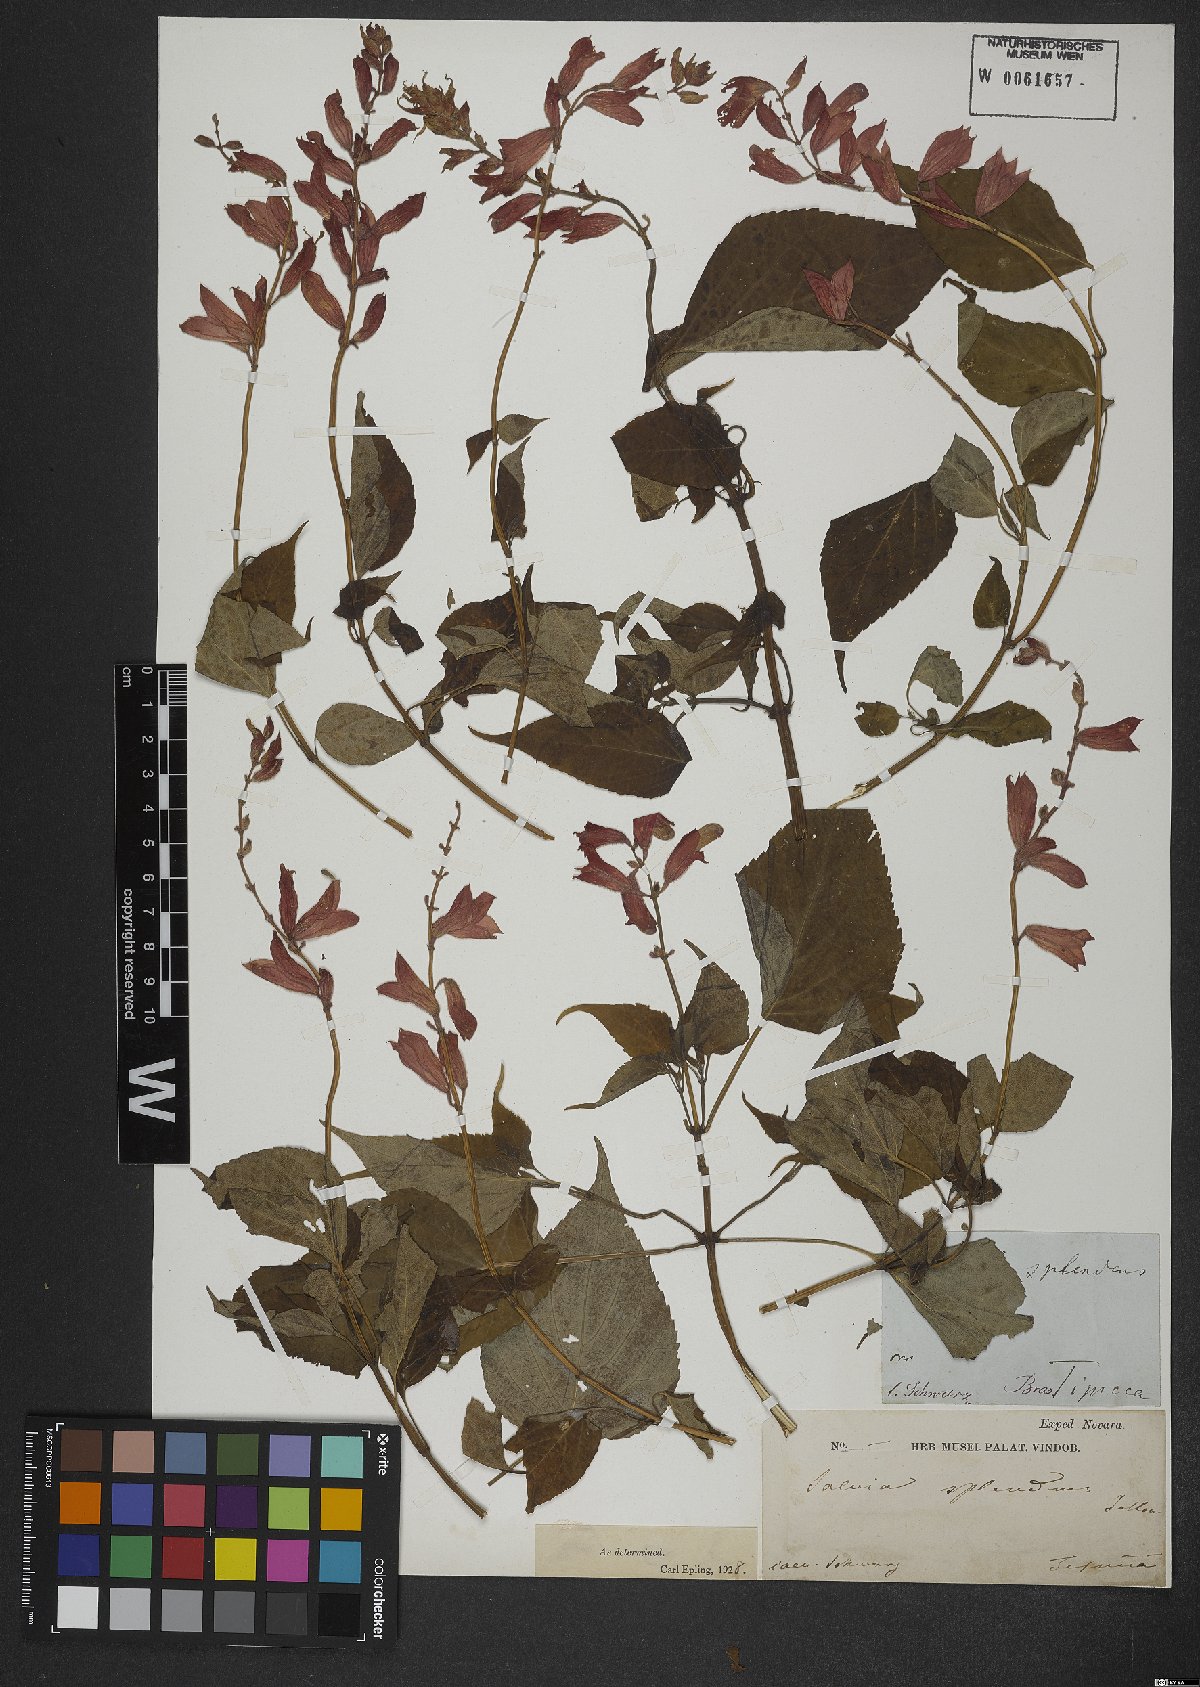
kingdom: Plantae
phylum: Tracheophyta
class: Magnoliopsida
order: Lamiales
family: Lamiaceae
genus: Salvia
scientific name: Salvia splendens
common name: Scarlet sage
